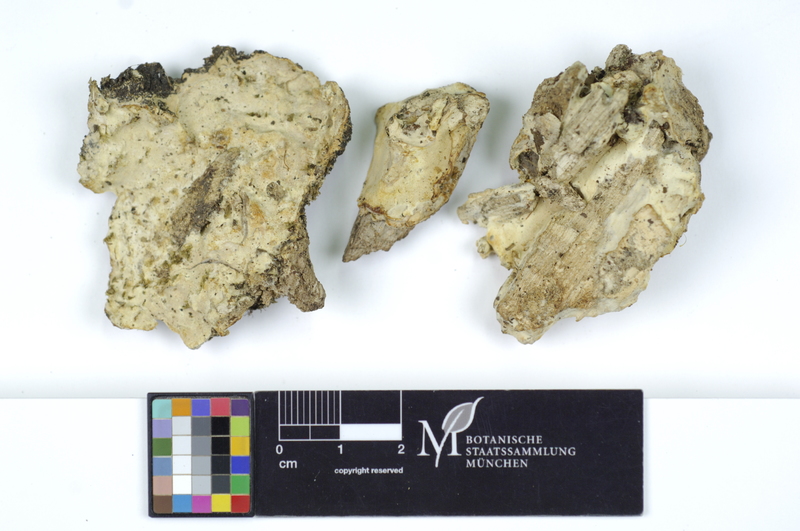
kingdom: Fungi
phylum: Ascomycota
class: Sordariomycetes
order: Hypocreales
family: Hypocreaceae
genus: Trichoderma
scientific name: Trichoderma citrinum
